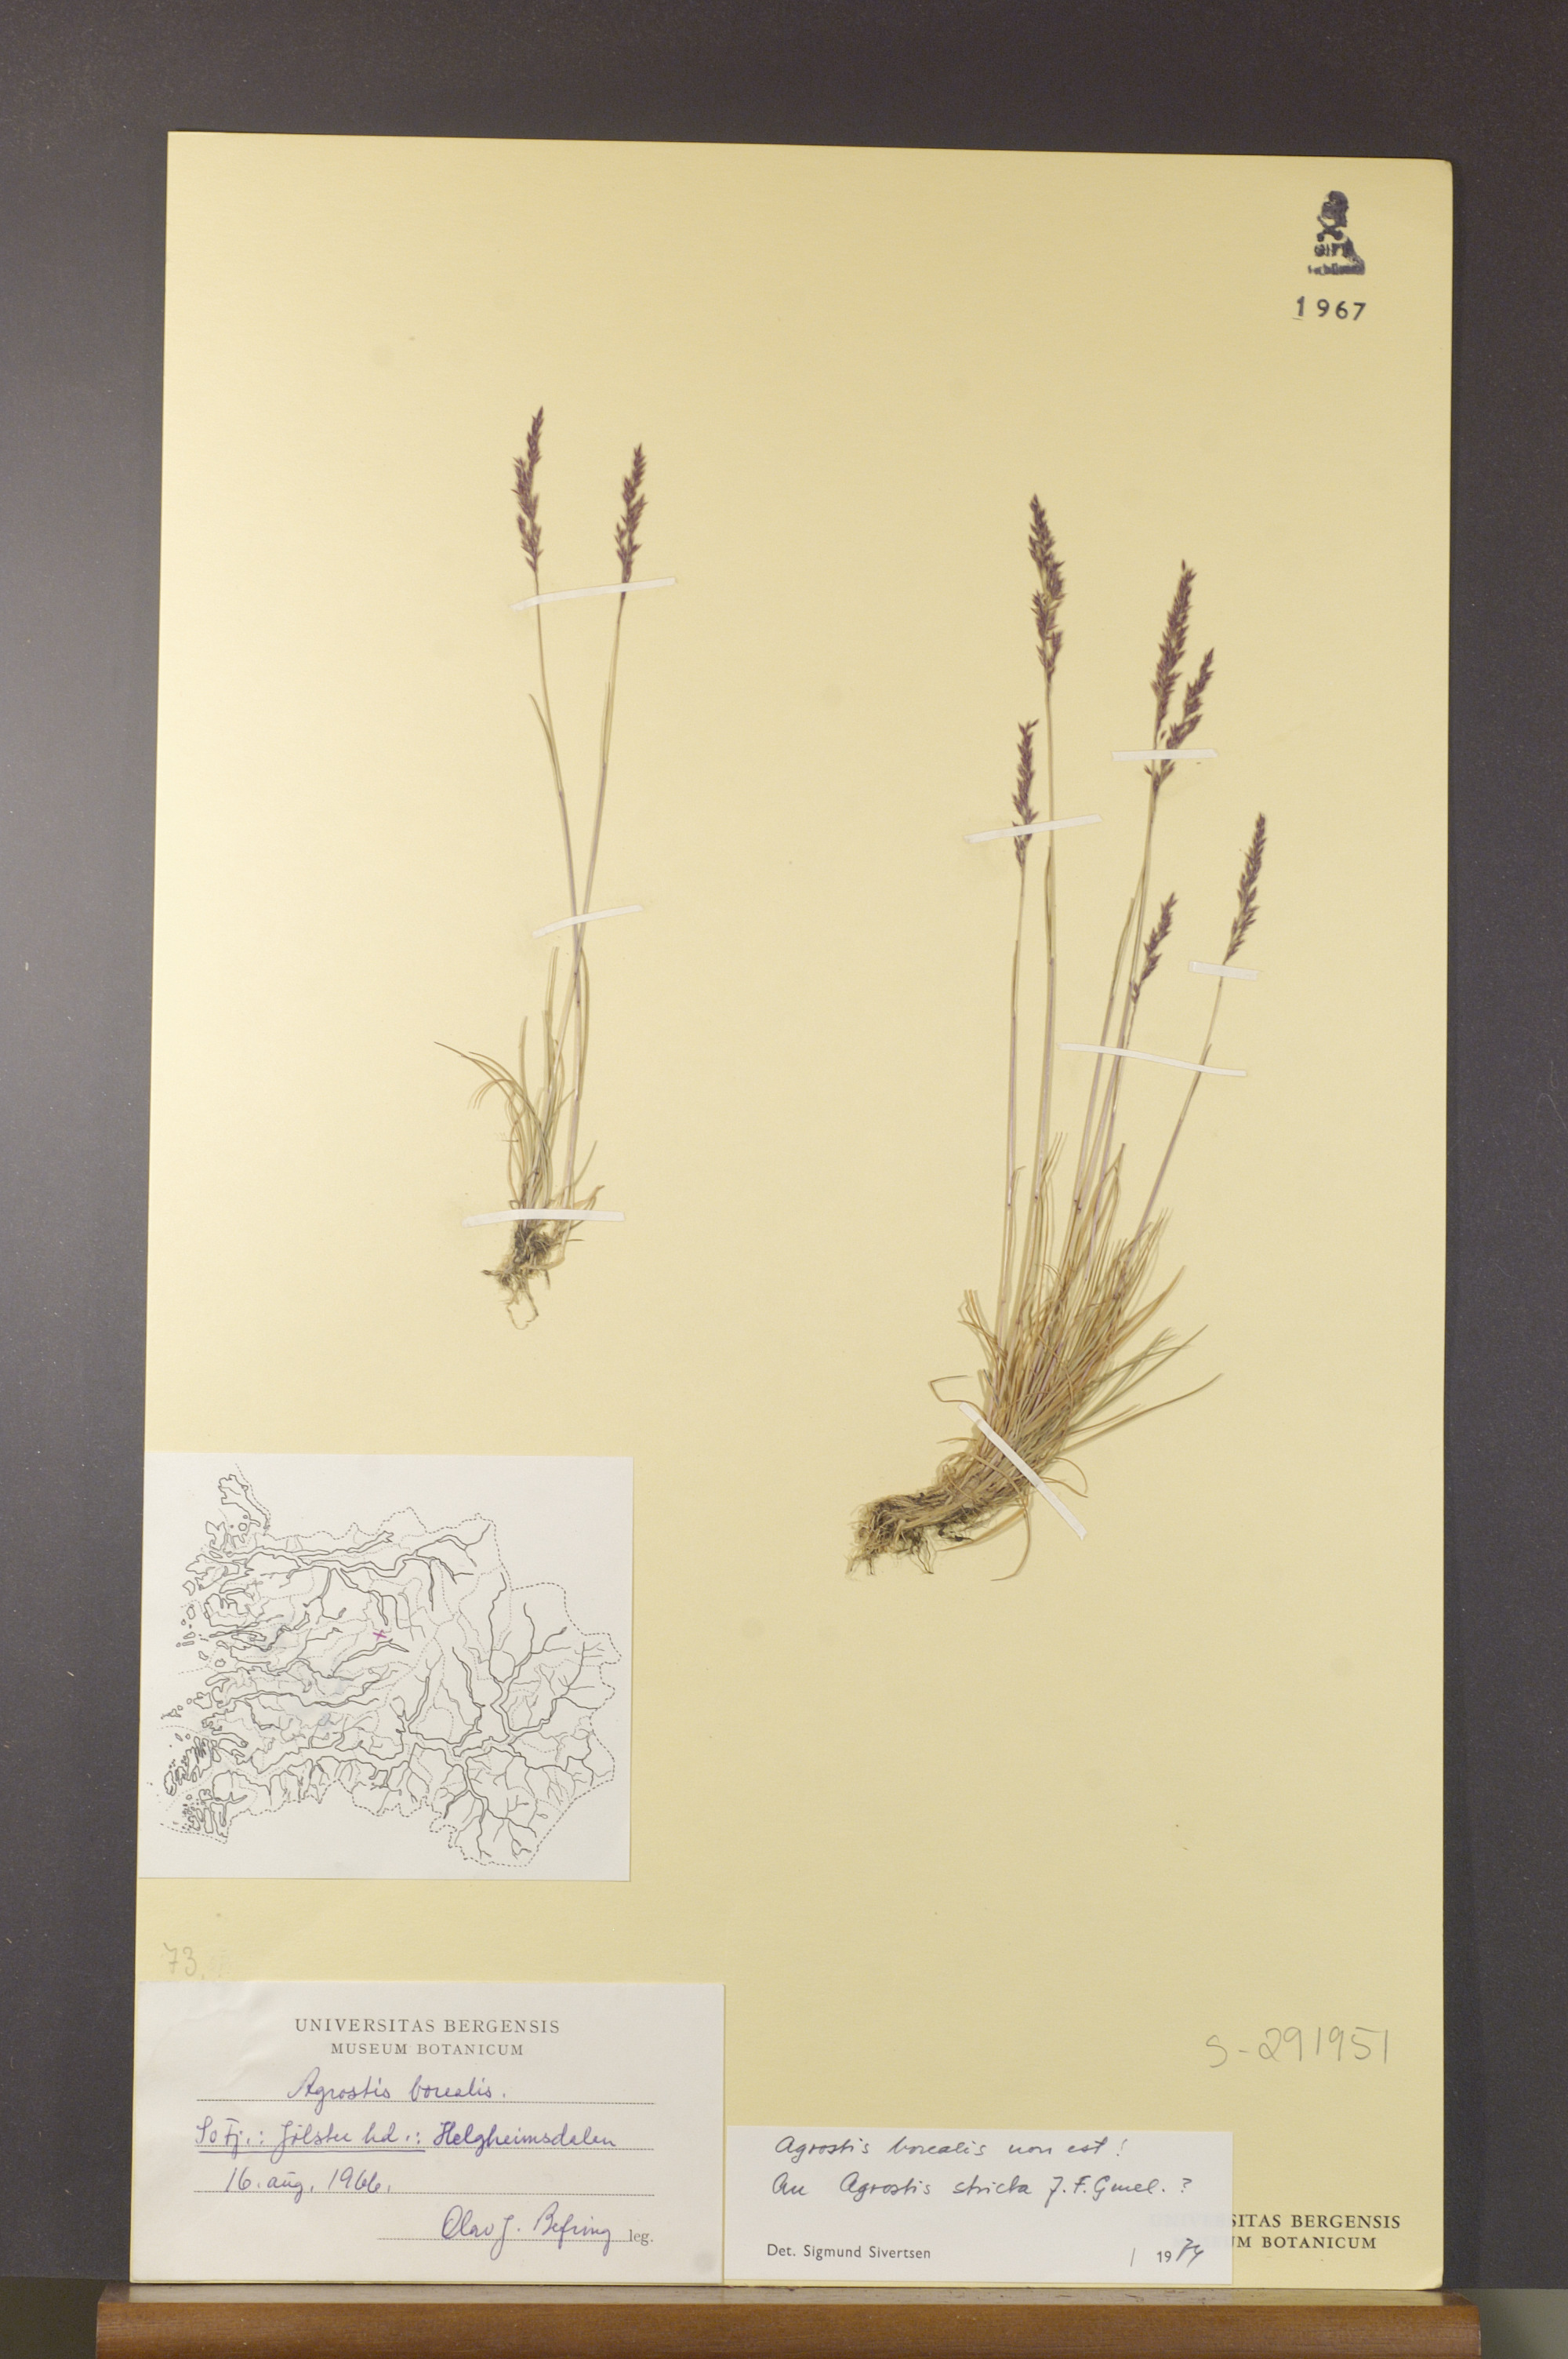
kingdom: Plantae
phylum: Tracheophyta
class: Liliopsida
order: Poales
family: Poaceae
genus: Agrostis
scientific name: Agrostis vinealis
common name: Brown bent
